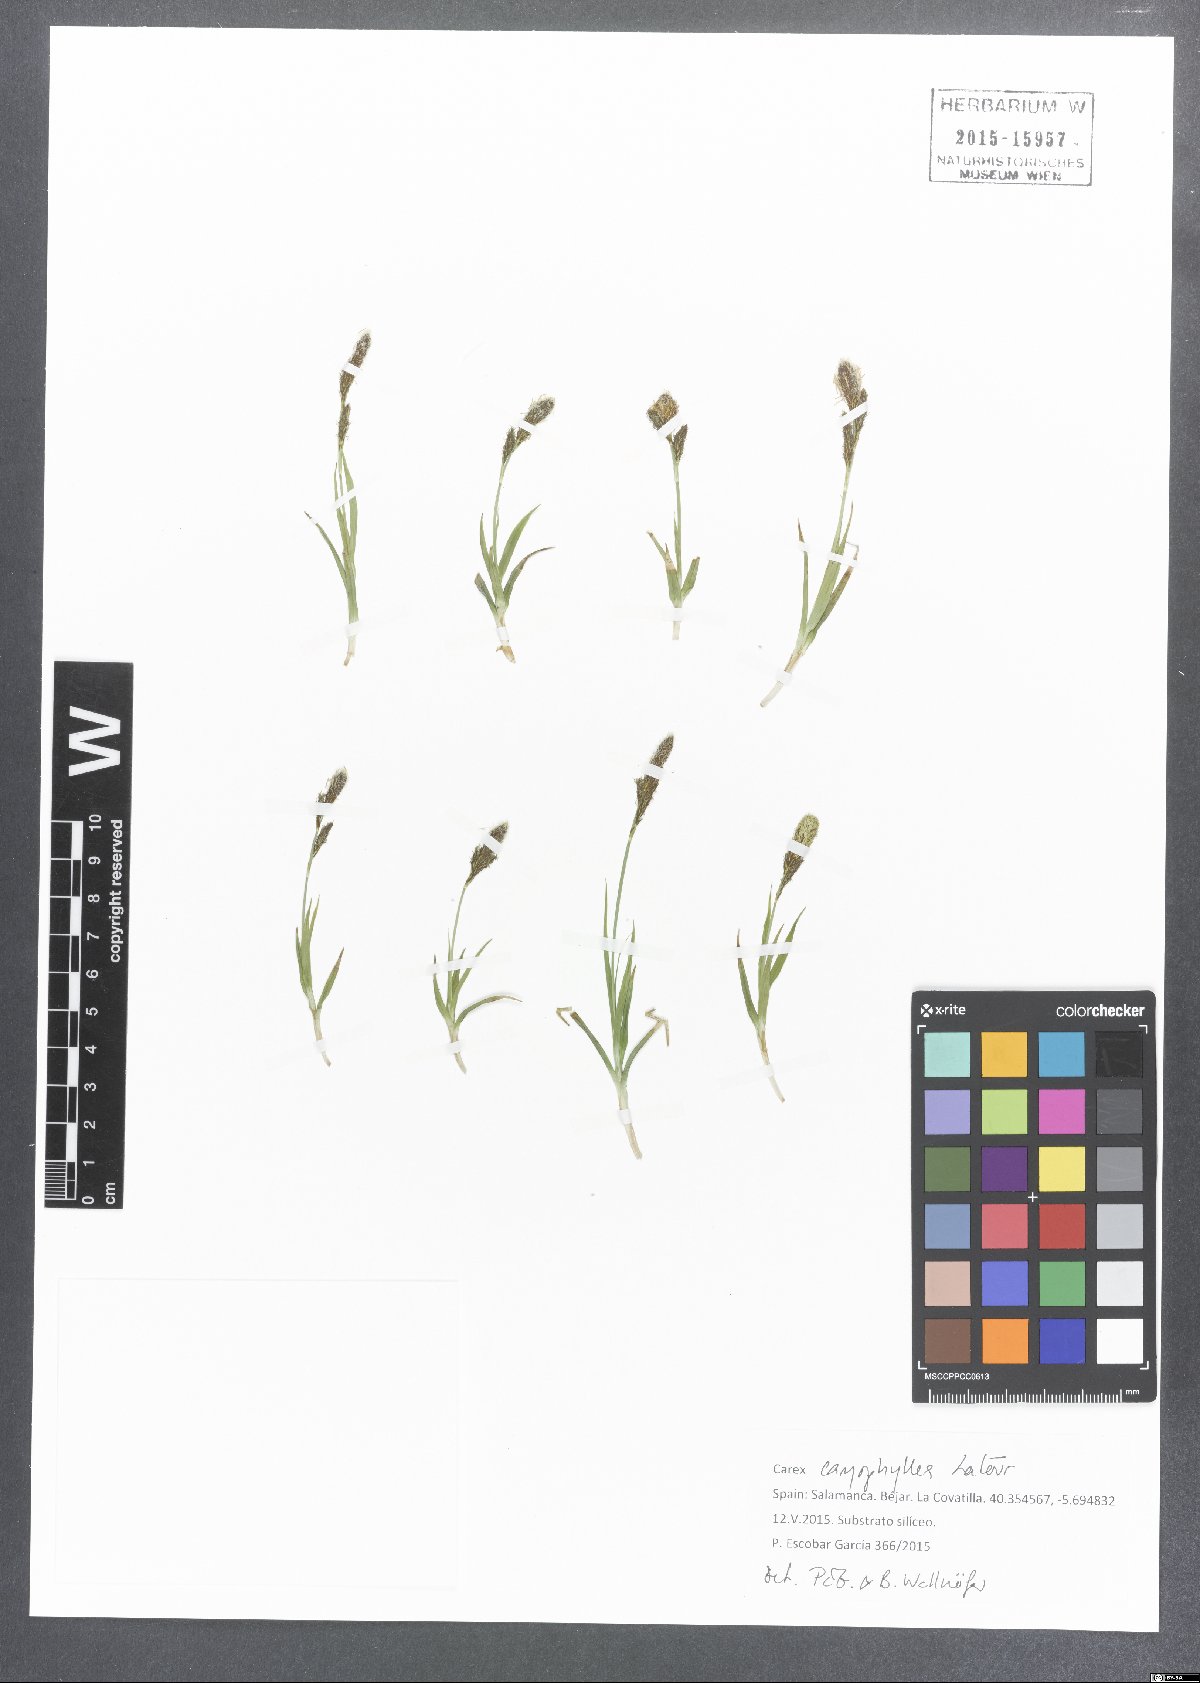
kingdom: Plantae
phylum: Tracheophyta
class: Liliopsida
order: Poales
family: Cyperaceae
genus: Carex
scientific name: Carex caryophyllea
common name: Spring sedge
